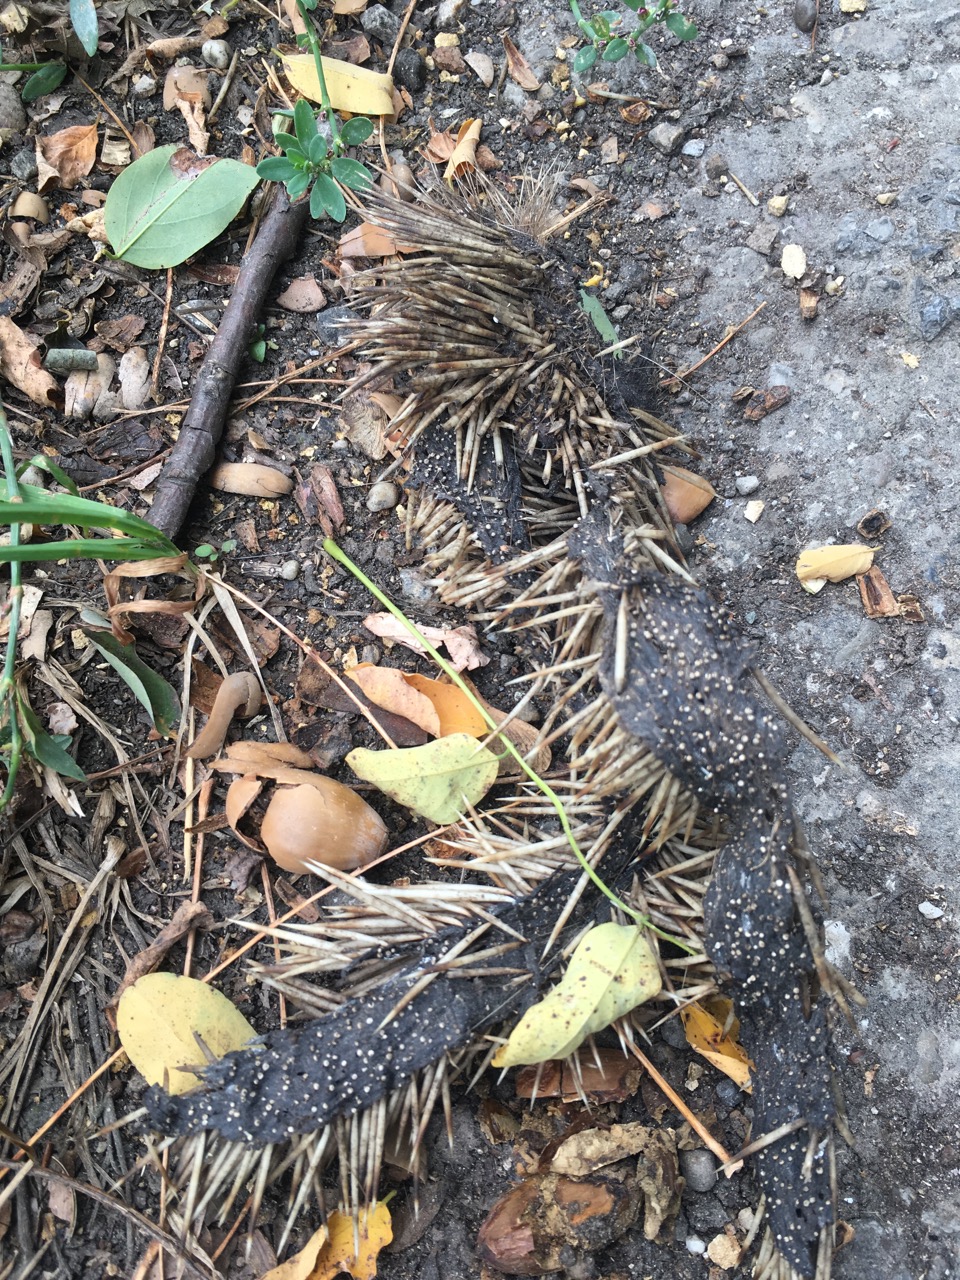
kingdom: Animalia
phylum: Chordata
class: Mammalia
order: Erinaceomorpha
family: Erinaceidae
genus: Erinaceus
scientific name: Erinaceus
